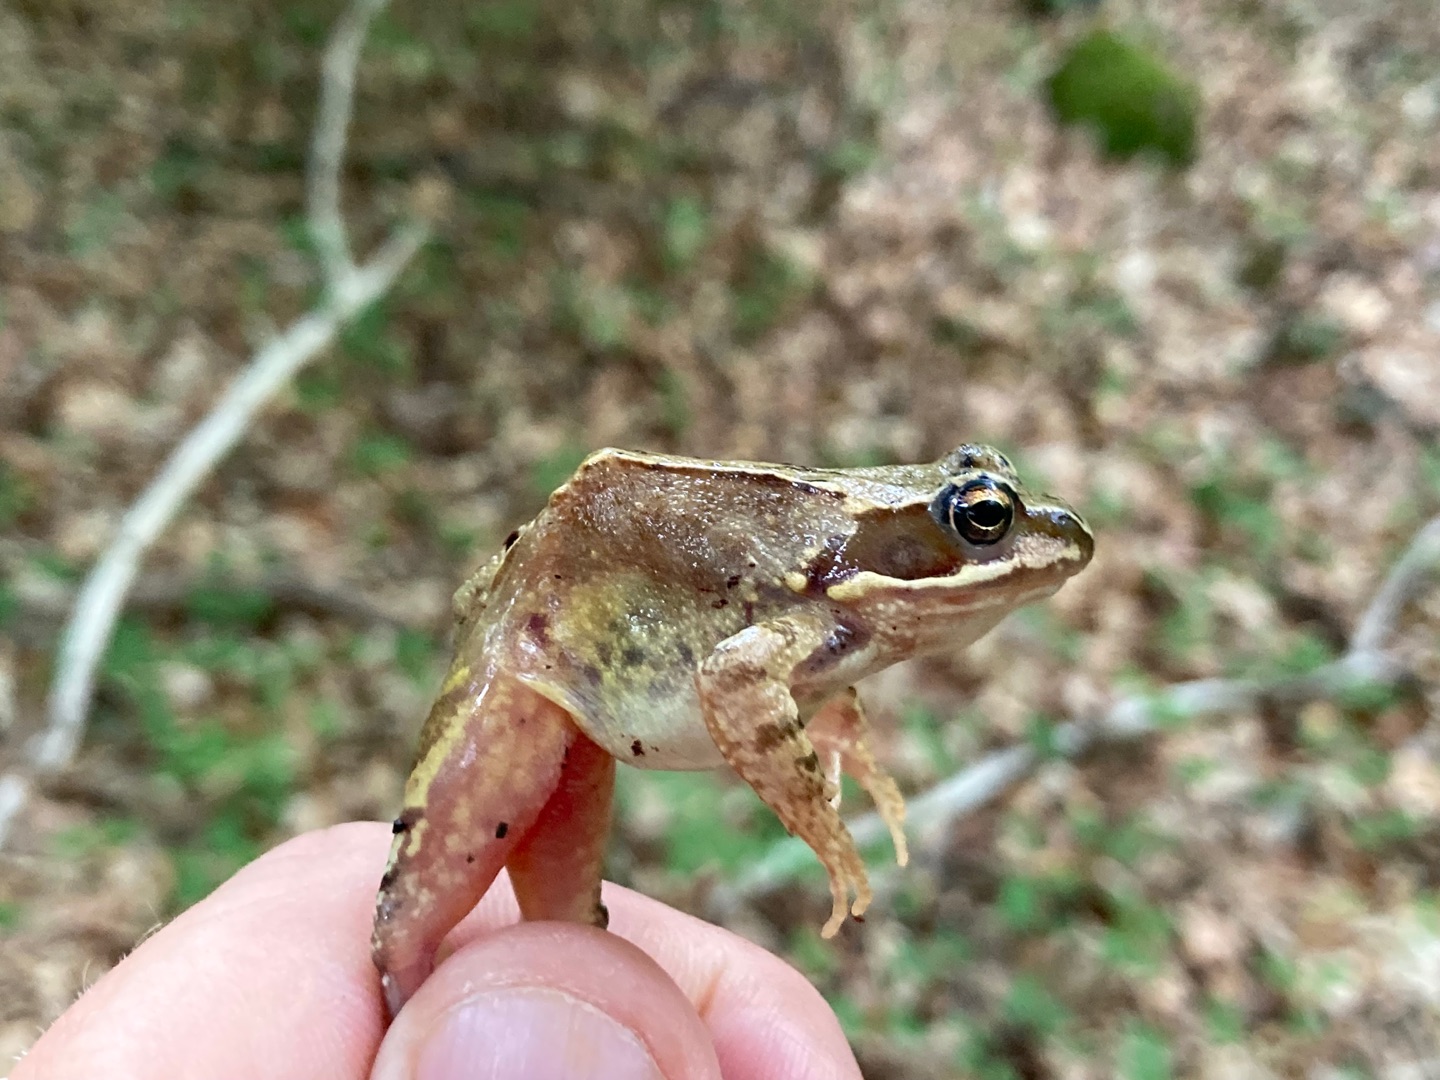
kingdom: Animalia
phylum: Chordata
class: Amphibia
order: Anura
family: Ranidae
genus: Rana
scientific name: Rana temporaria
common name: Butsnudet frø
